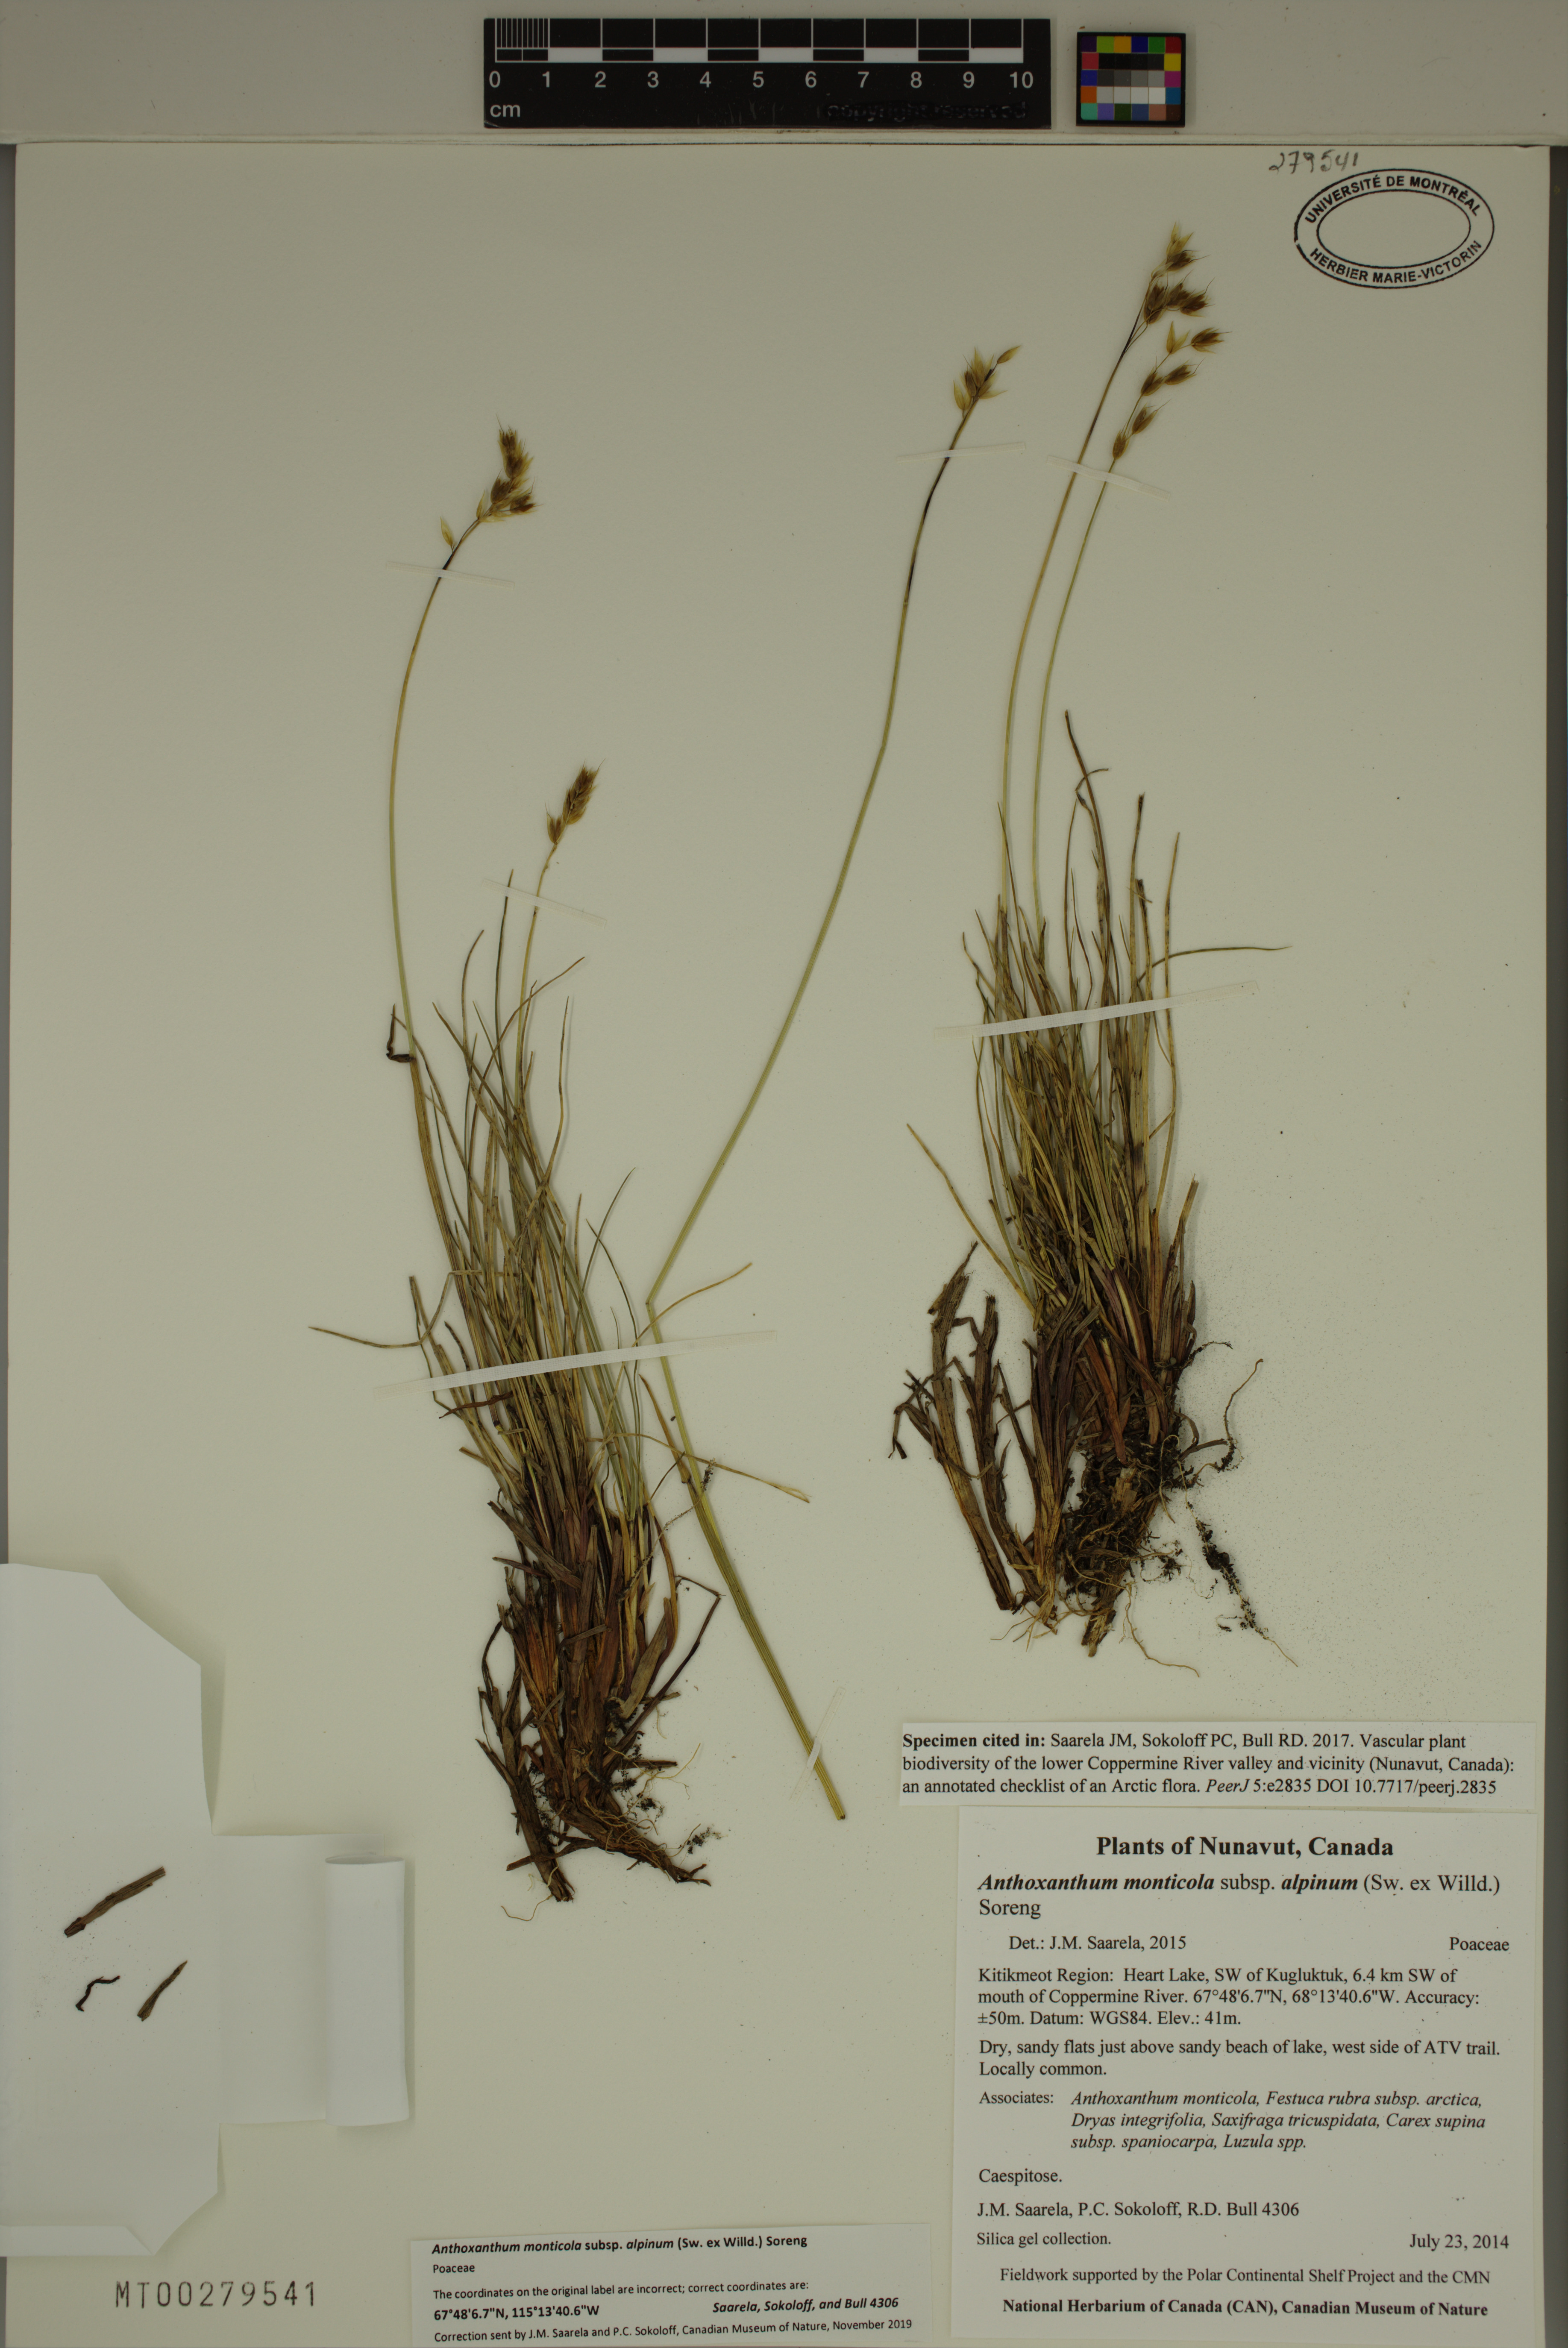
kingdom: Plantae
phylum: Tracheophyta
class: Liliopsida
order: Poales
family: Poaceae
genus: Anthoxanthum
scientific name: Anthoxanthum monticola
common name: Alpine sweetgrass
